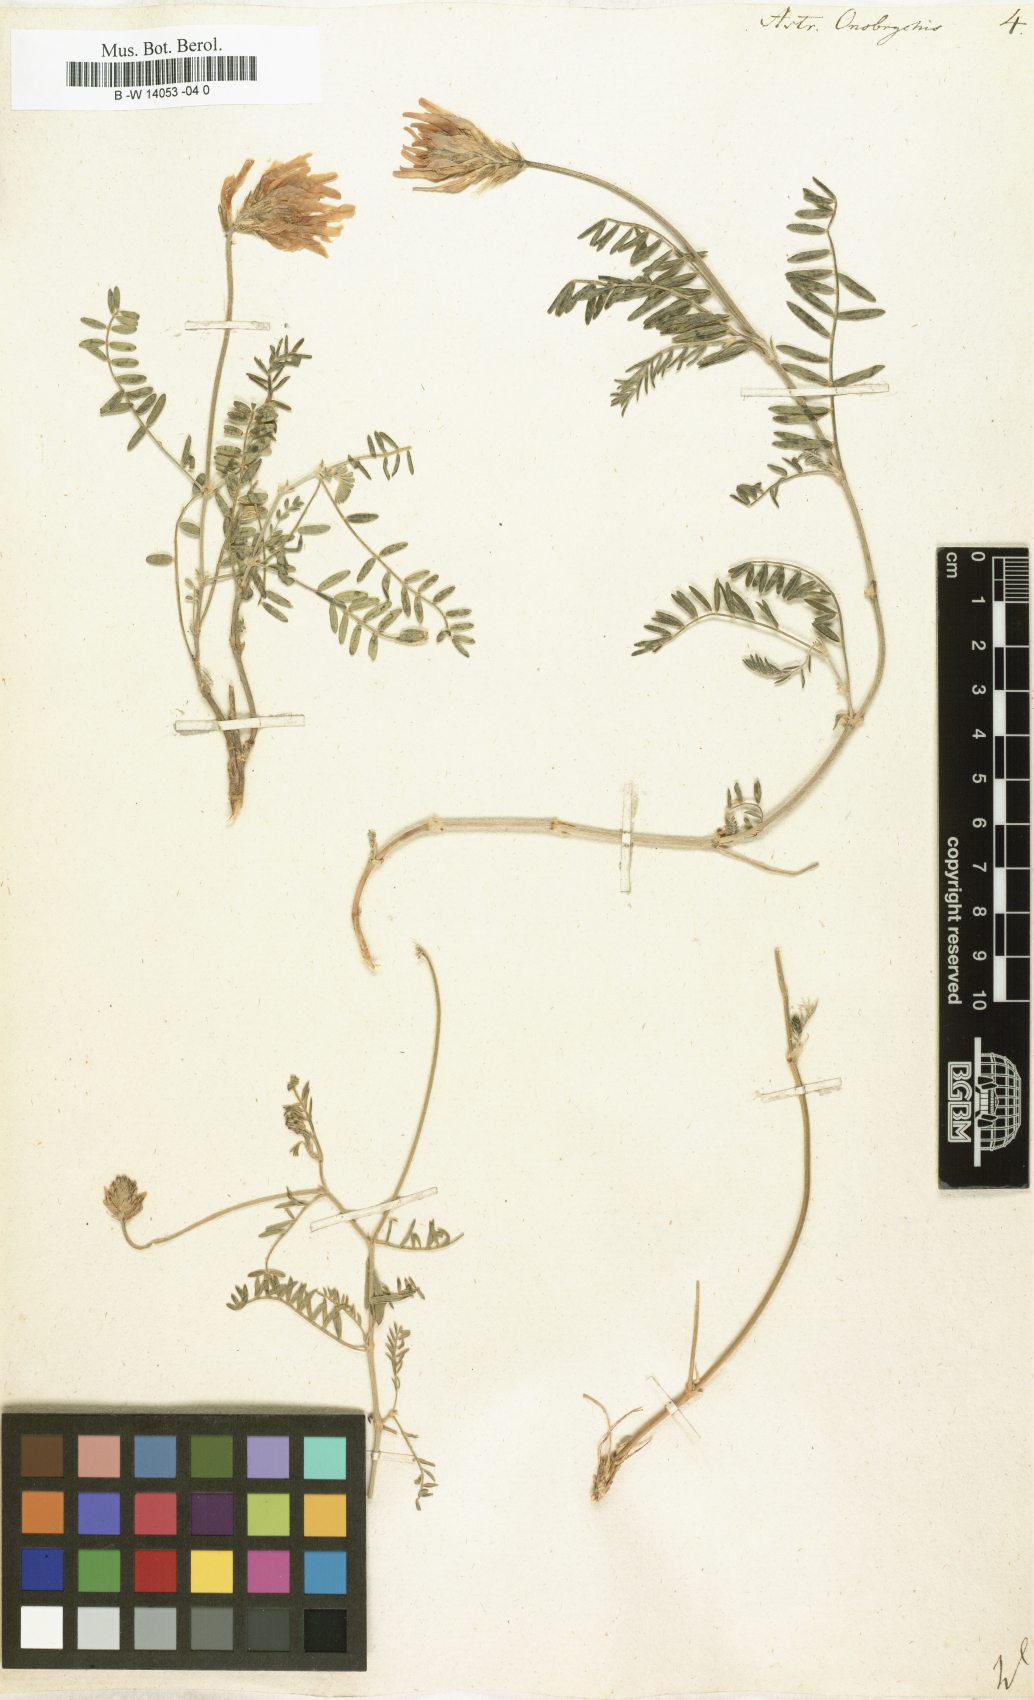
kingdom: Plantae
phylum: Tracheophyta
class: Magnoliopsida
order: Fabales
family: Fabaceae
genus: Astragalus
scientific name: Astragalus onobrychis
